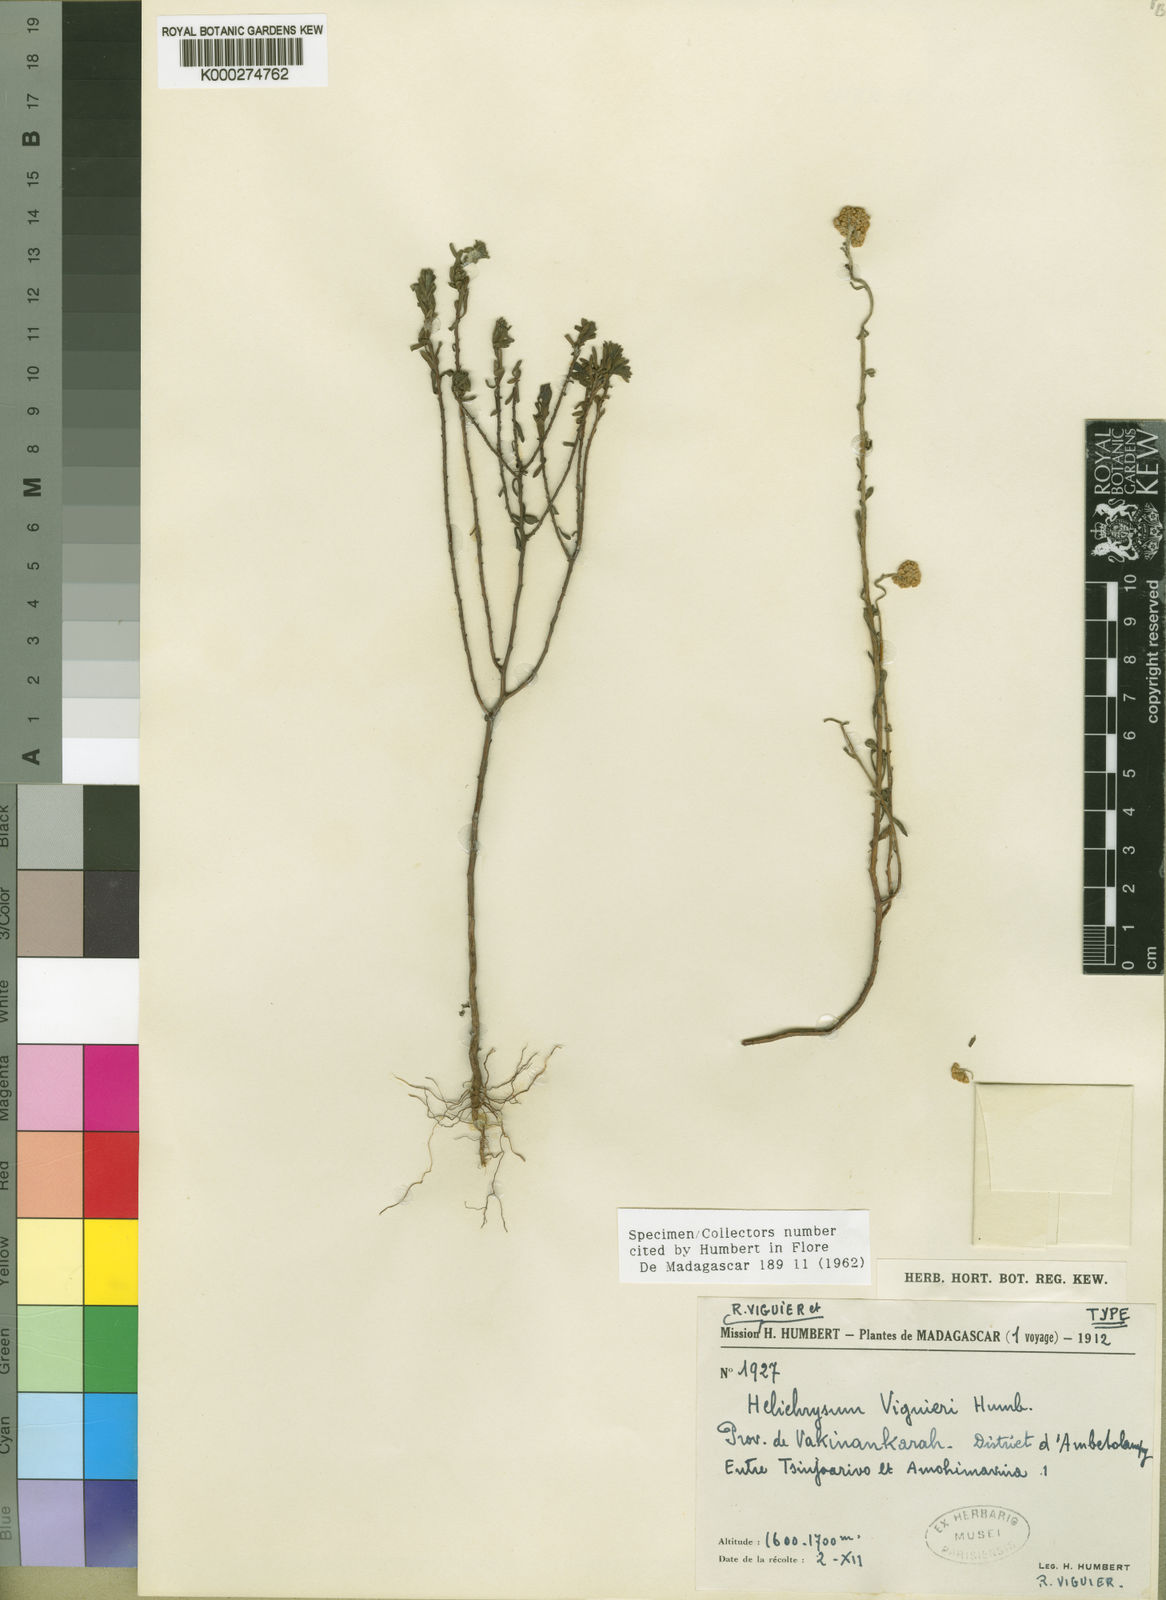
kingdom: Plantae
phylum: Tracheophyta
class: Magnoliopsida
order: Asterales
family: Asteraceae
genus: Helichrysum
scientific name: Helichrysum viguieri
